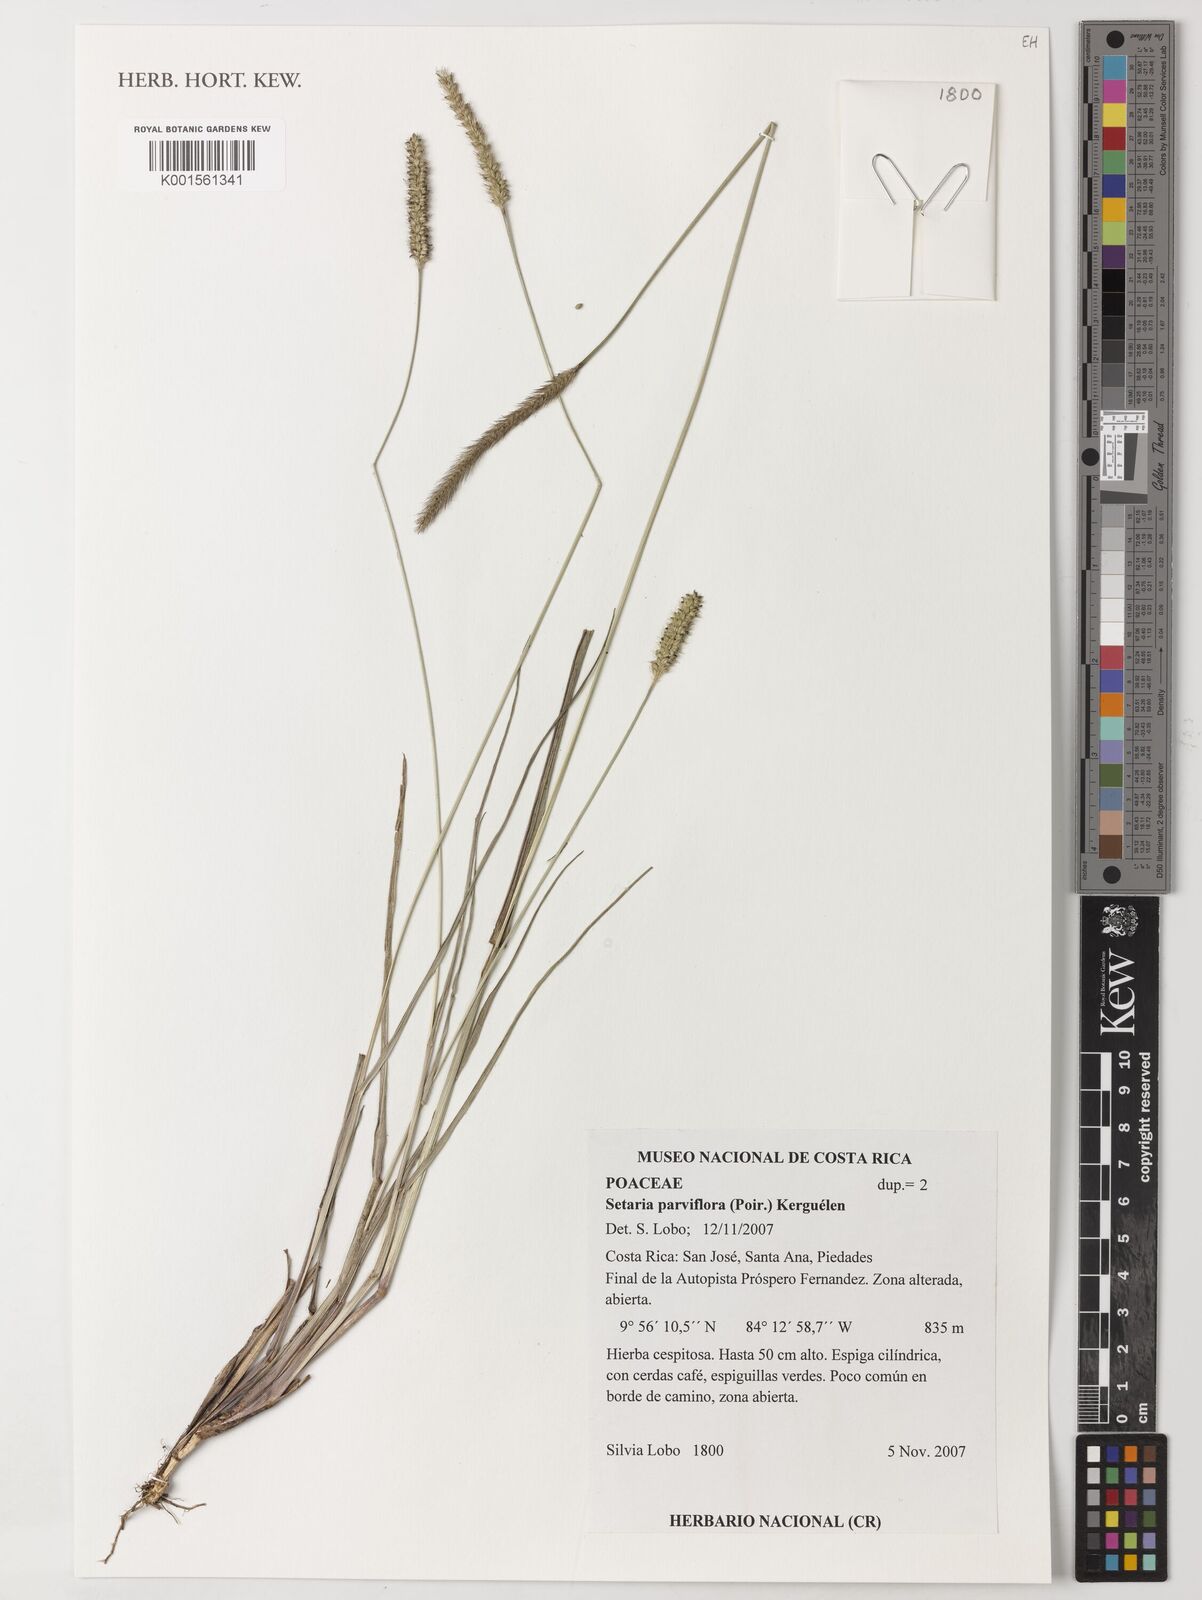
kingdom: Plantae
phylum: Tracheophyta
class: Liliopsida
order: Poales
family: Poaceae
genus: Setaria
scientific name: Setaria parviflora
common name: Knotroot bristle-grass
